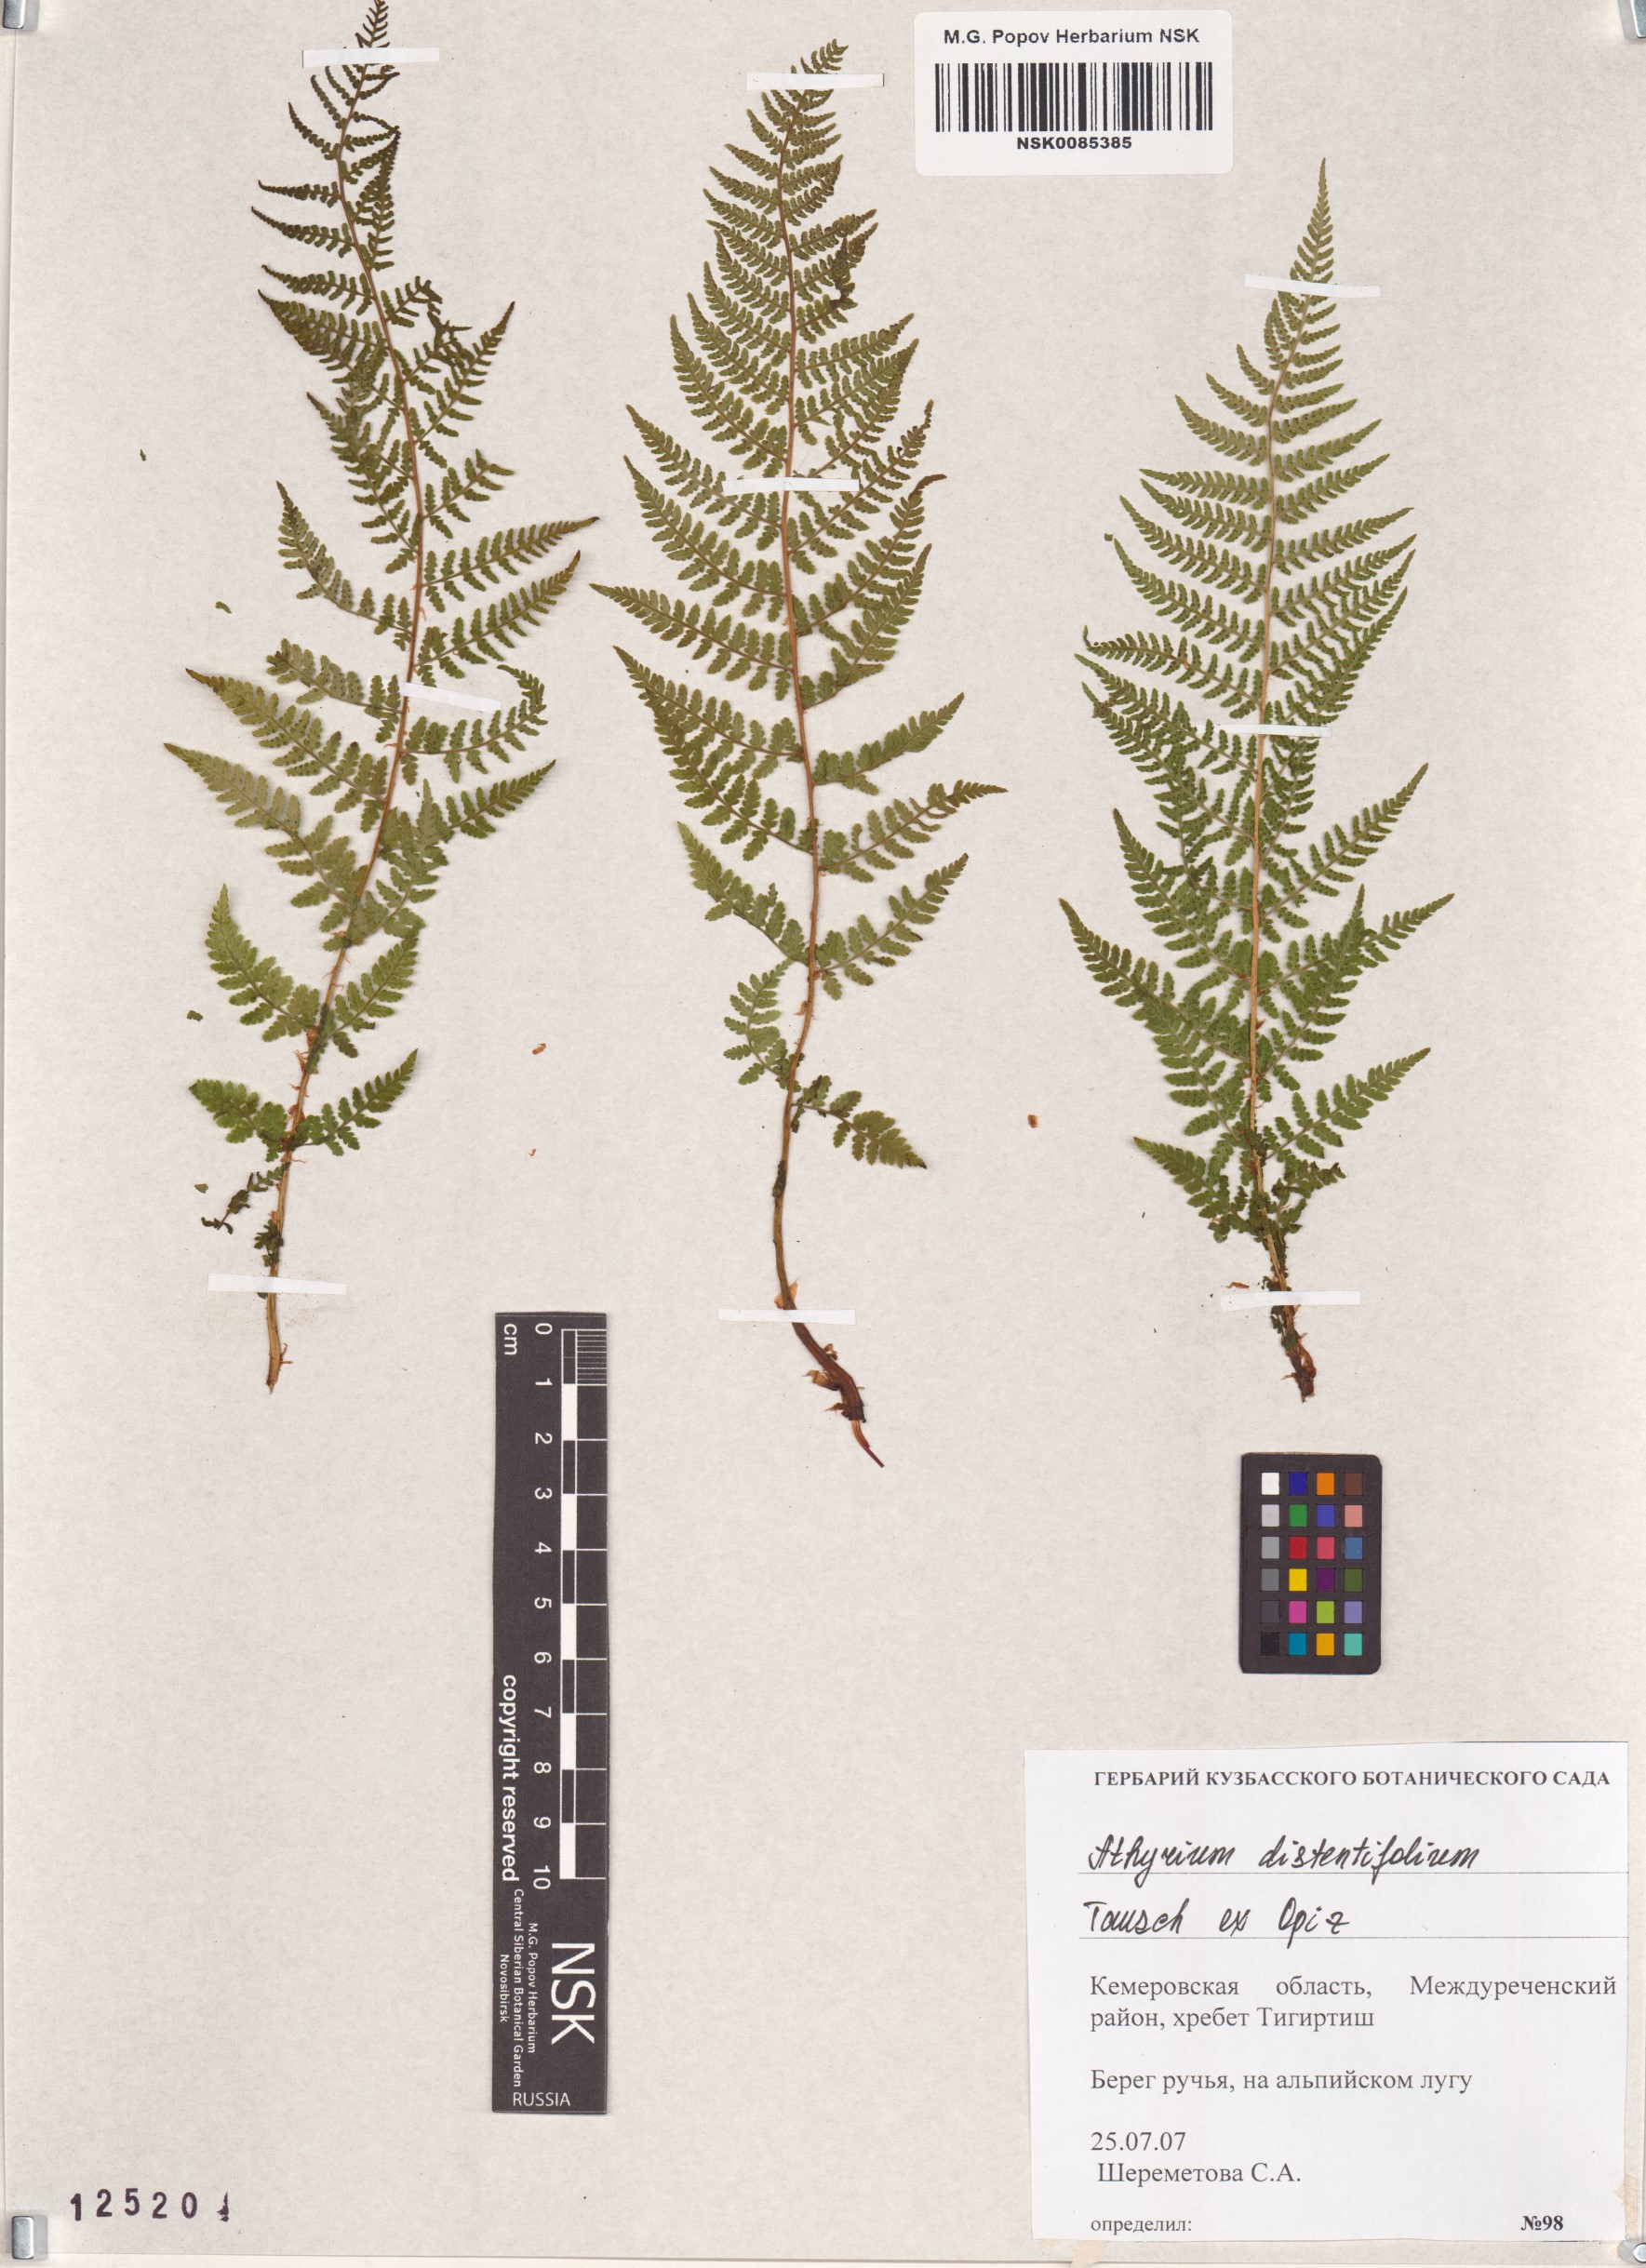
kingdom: Plantae
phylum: Tracheophyta
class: Polypodiopsida
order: Polypodiales
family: Athyriaceae
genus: Pseudathyrium
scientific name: Pseudathyrium alpestre
